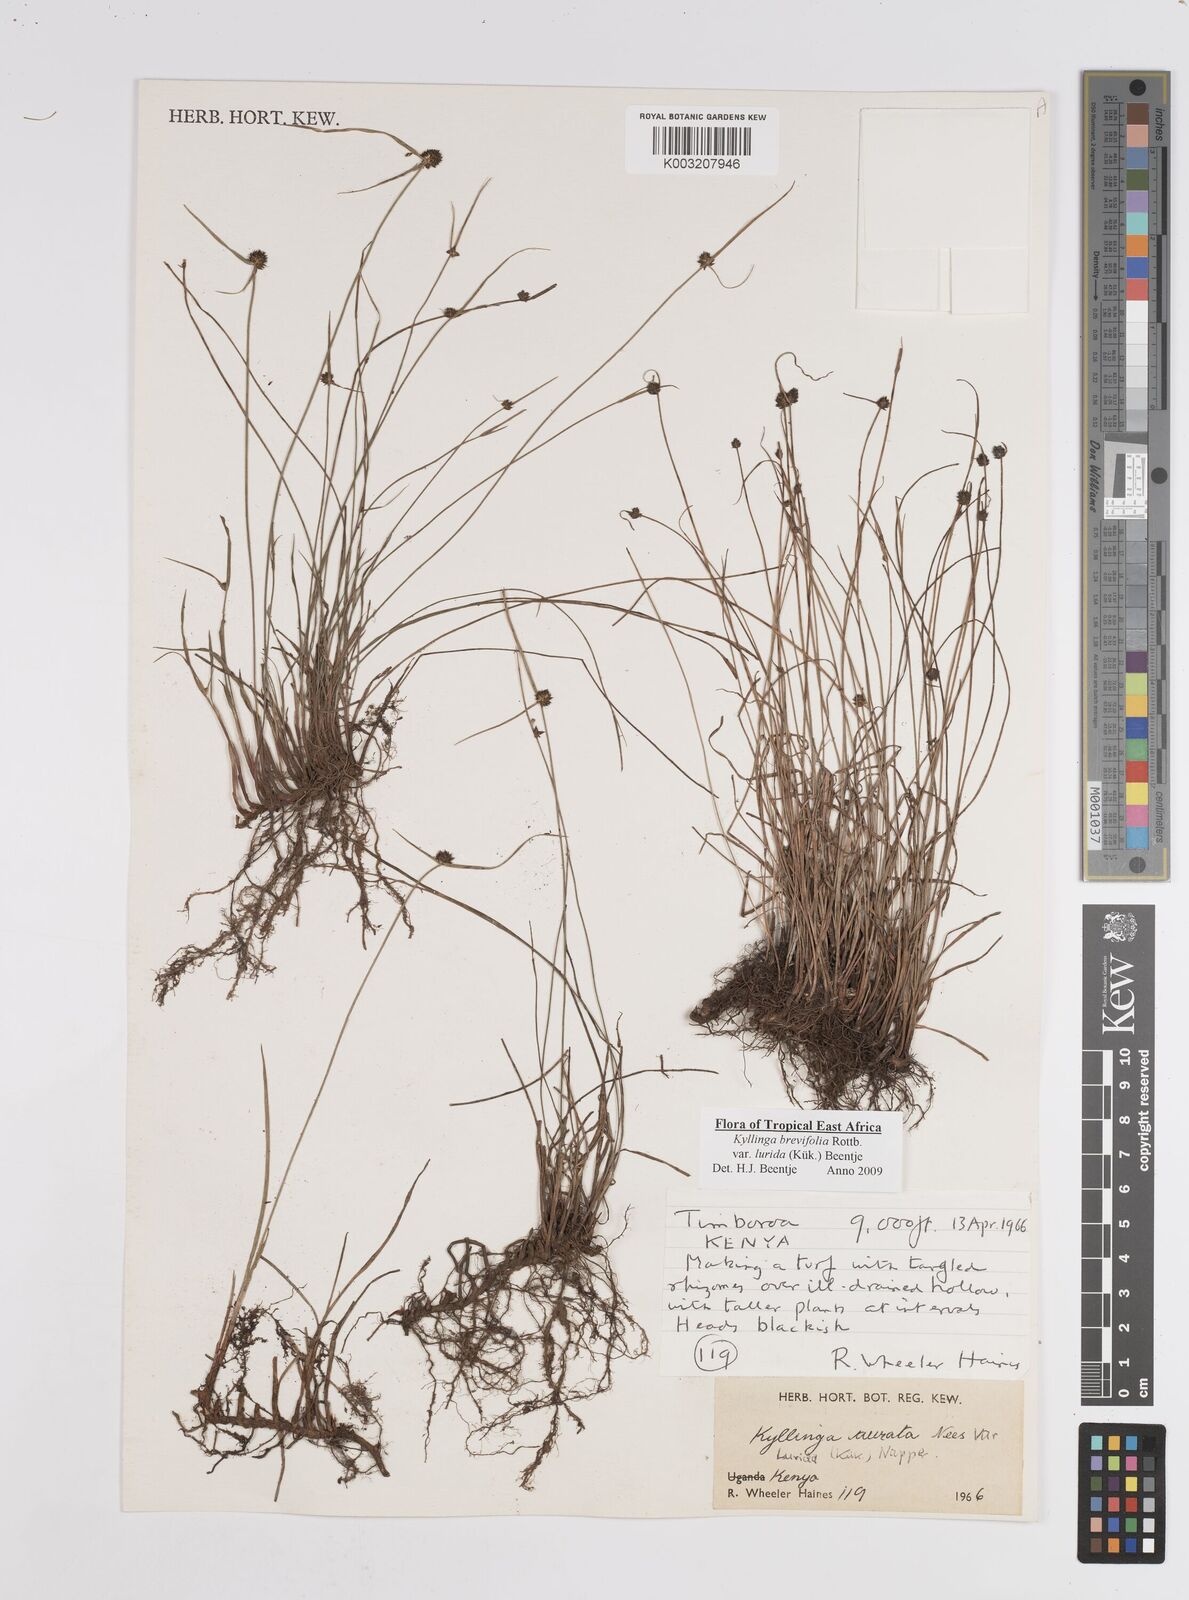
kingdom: Plantae
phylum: Tracheophyta
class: Liliopsida
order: Poales
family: Cyperaceae
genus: Cyperus
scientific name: Cyperus erectus
